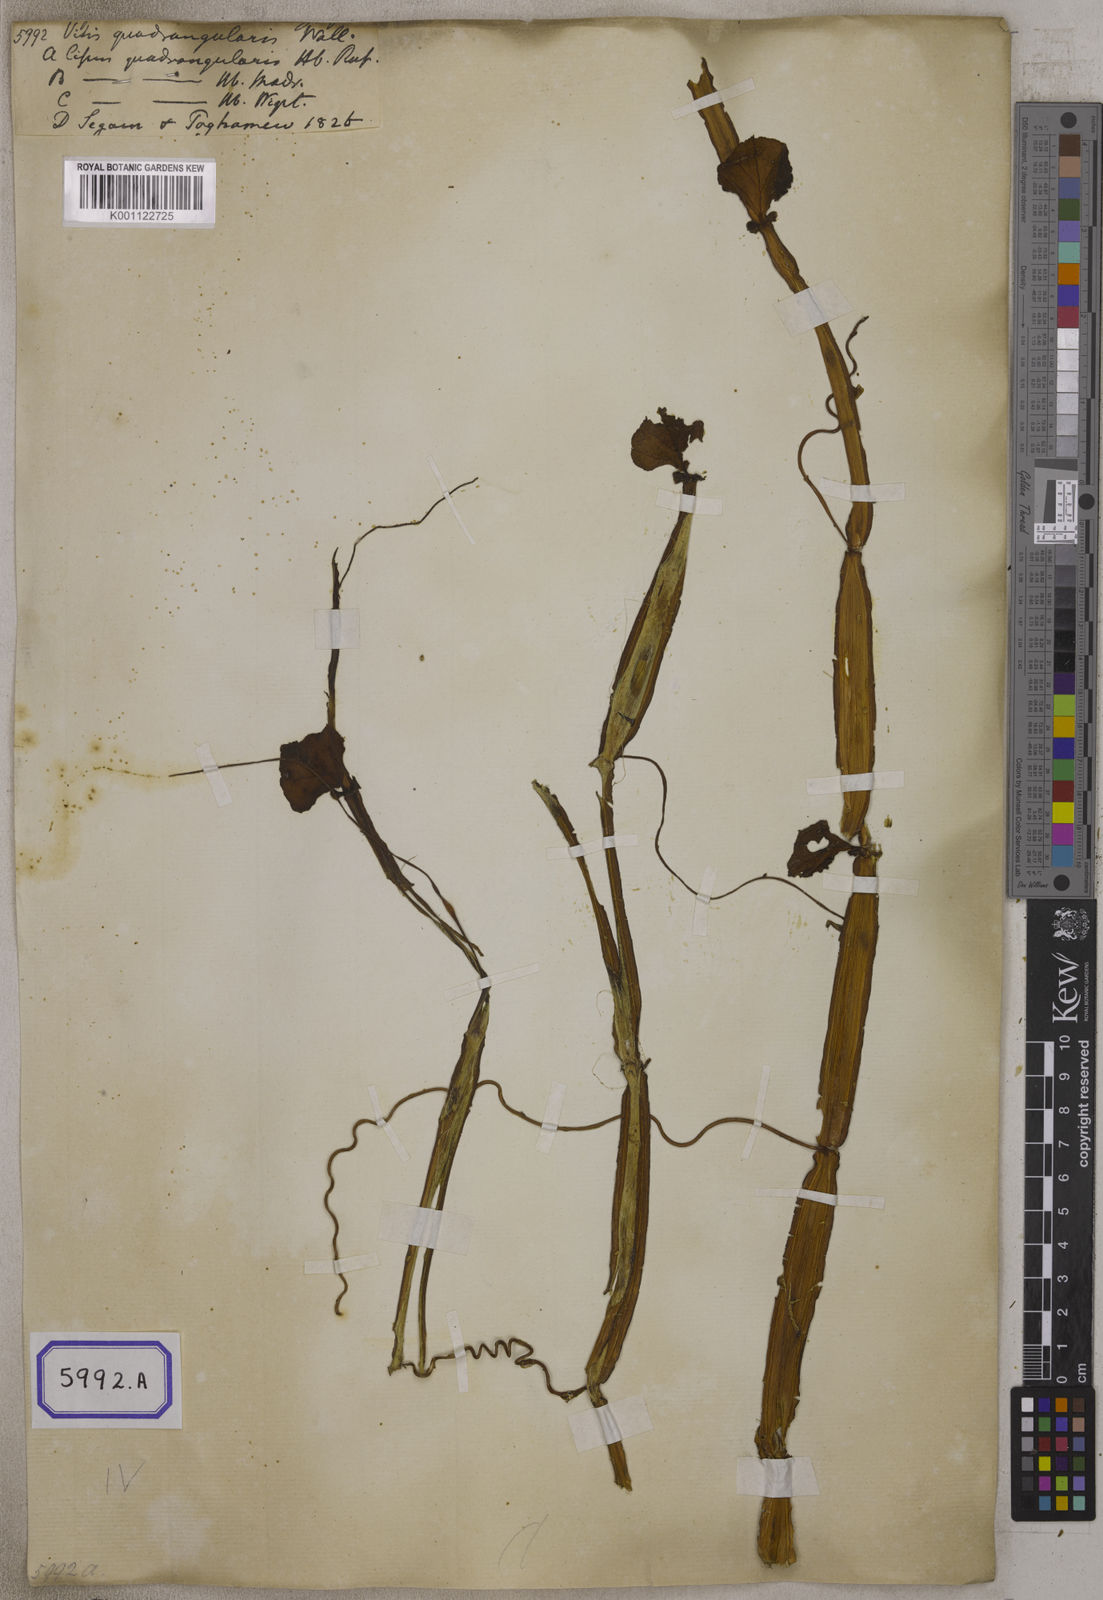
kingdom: Plantae
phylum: Tracheophyta
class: Magnoliopsida
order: Vitales
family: Vitaceae
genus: Vitis
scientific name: Vitis
